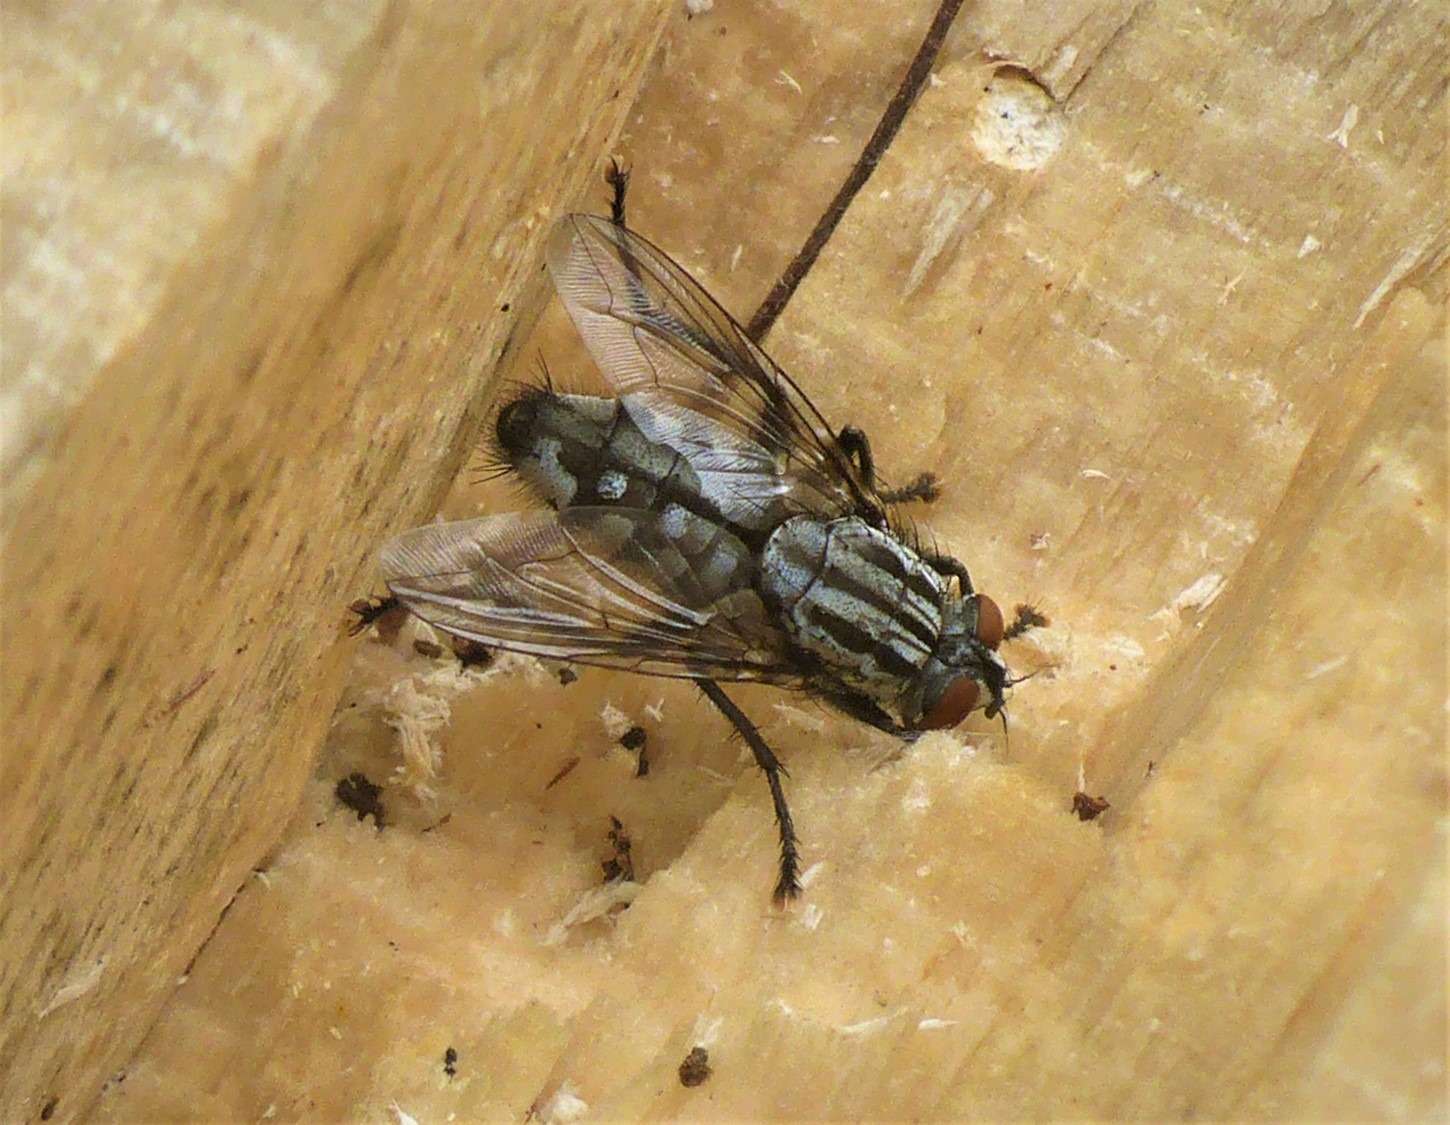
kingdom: Animalia
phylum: Arthropoda
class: Insecta
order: Diptera
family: Sarcophagidae
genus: Sarcophaga
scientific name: Sarcophaga
